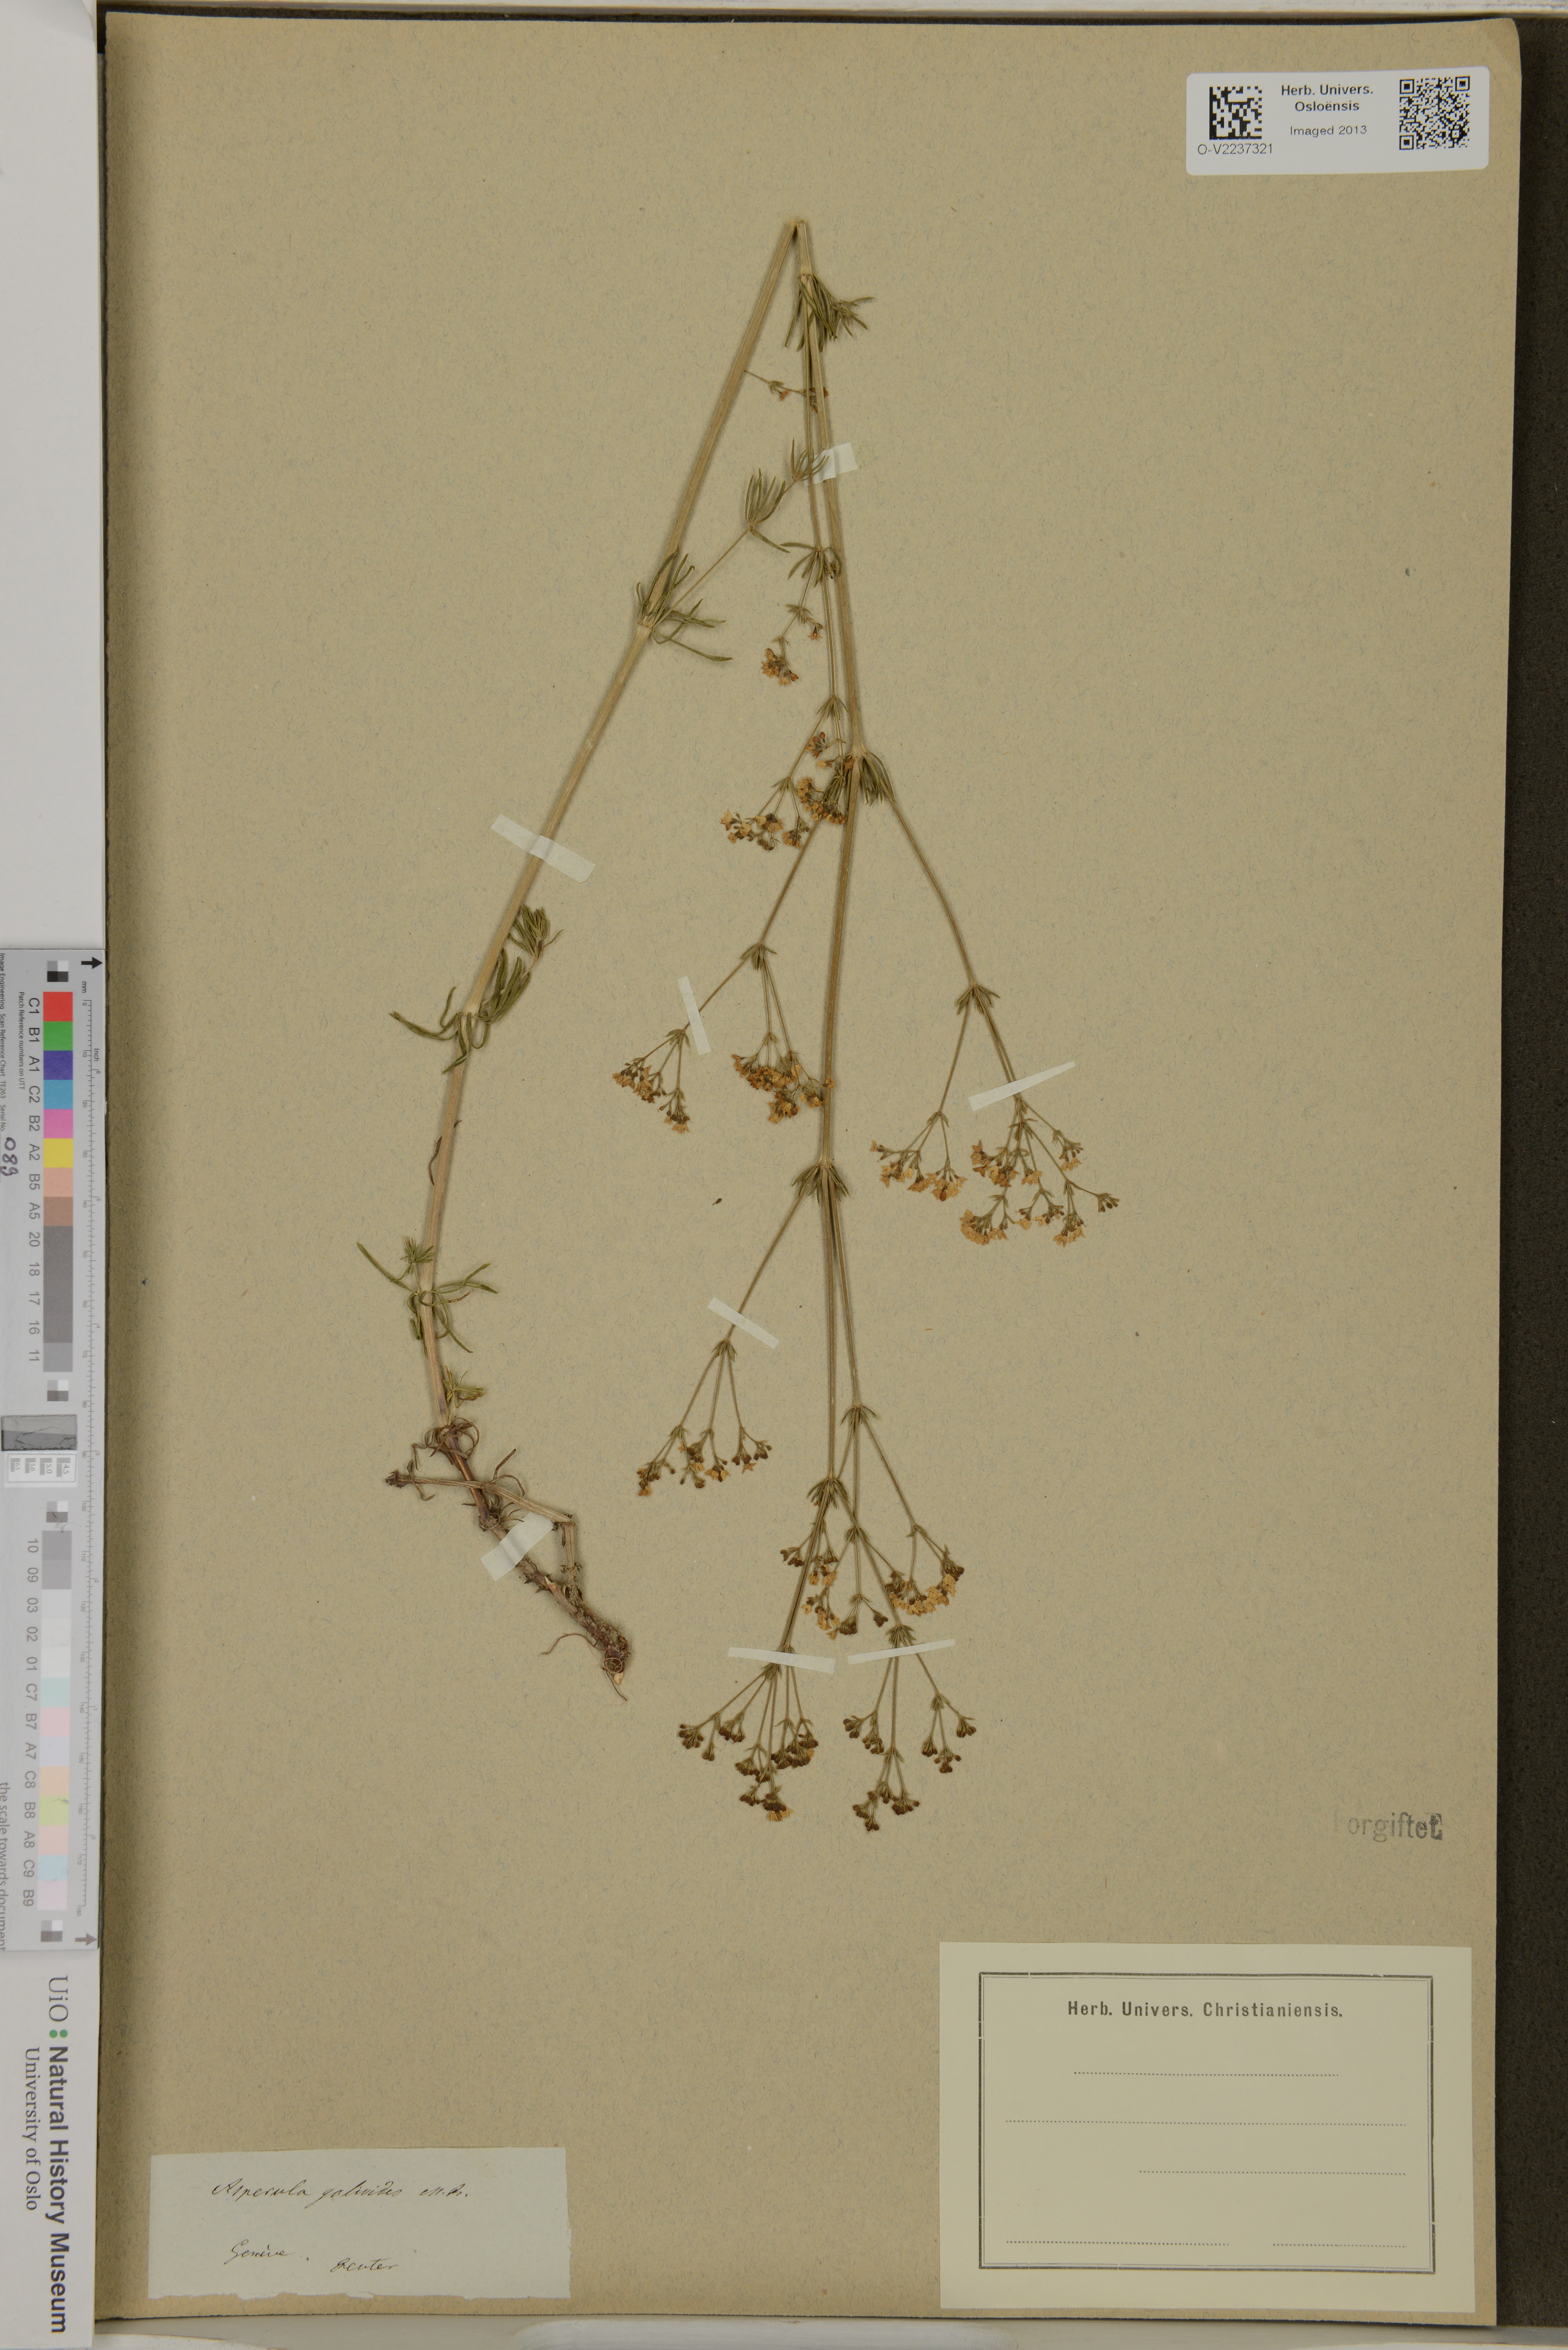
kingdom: Plantae
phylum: Tracheophyta
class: Magnoliopsida
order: Gentianales
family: Rubiaceae
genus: Asperula
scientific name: Asperula galioides
